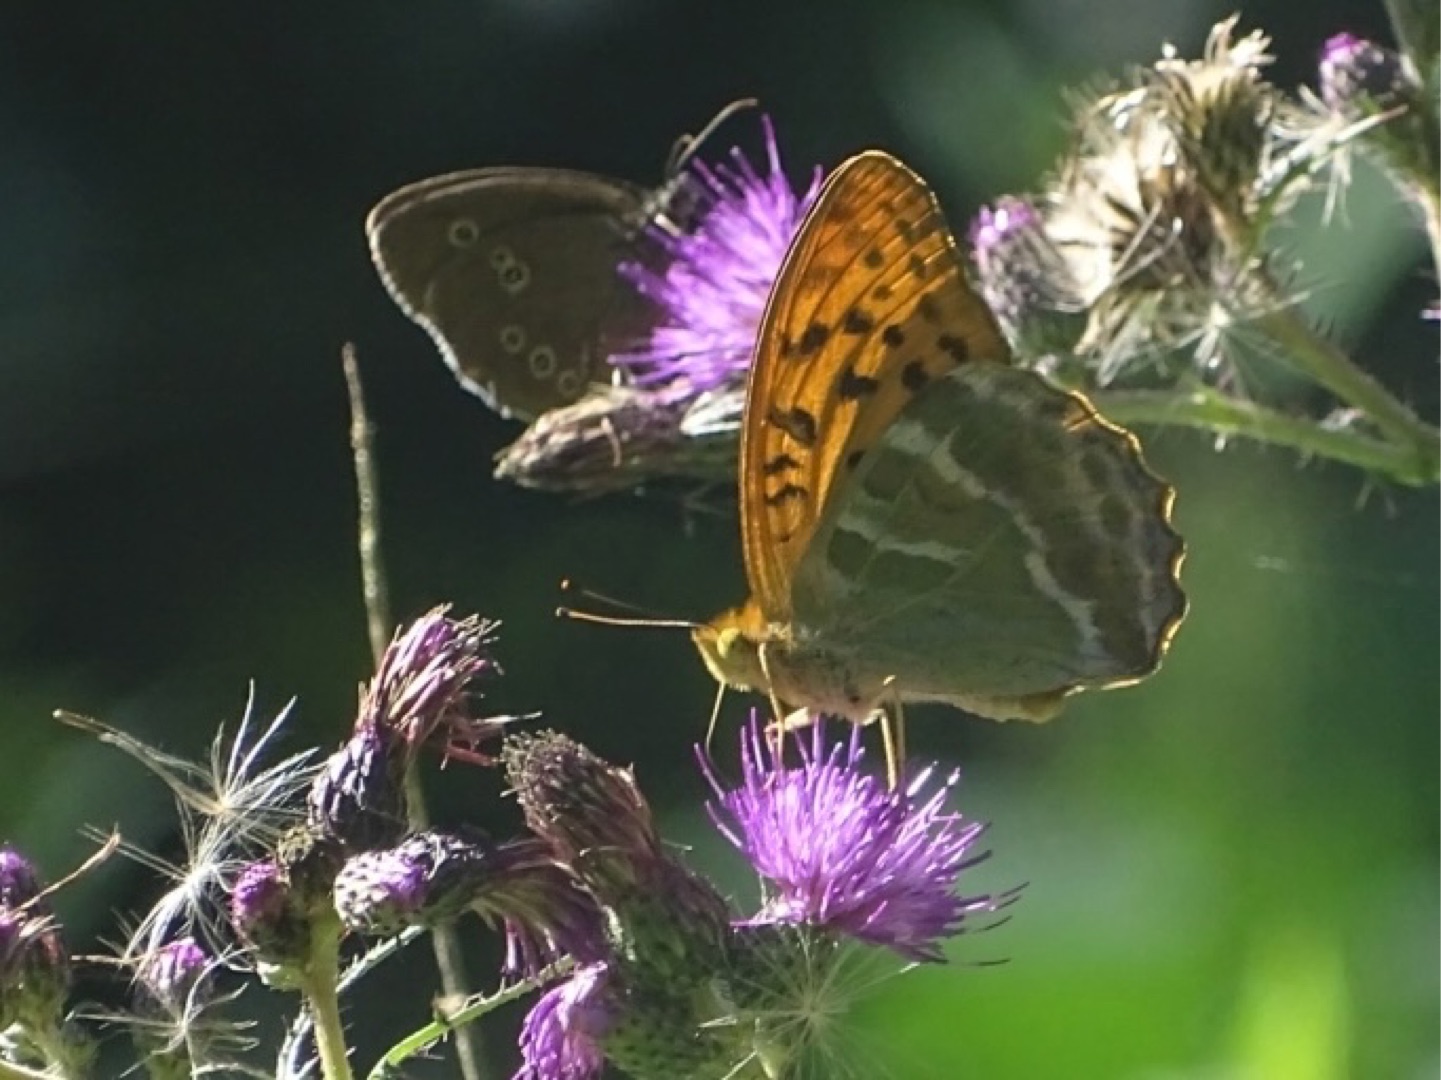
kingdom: Animalia
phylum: Arthropoda
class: Insecta
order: Lepidoptera
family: Nymphalidae
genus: Argynnis
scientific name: Argynnis paphia
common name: Kejserkåbe
